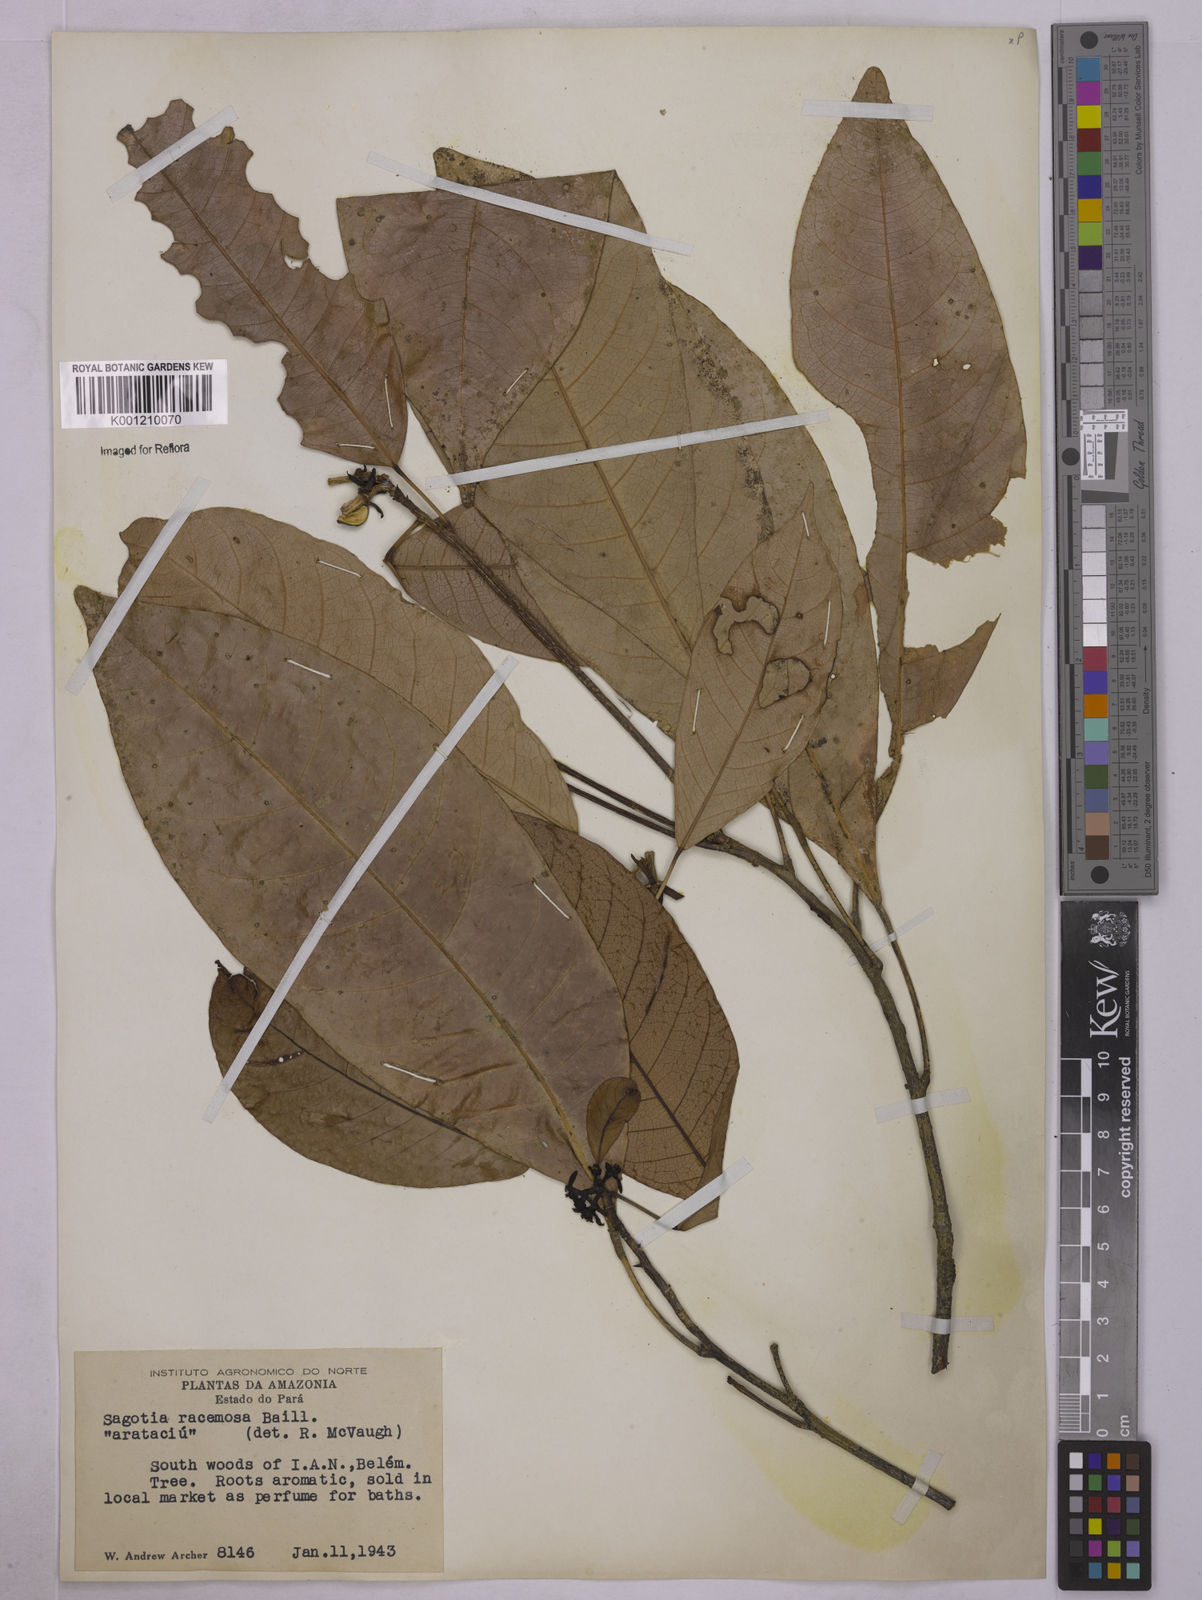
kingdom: Plantae
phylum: Tracheophyta
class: Magnoliopsida
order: Malpighiales
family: Euphorbiaceae
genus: Sagotia
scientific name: Sagotia racemosa
